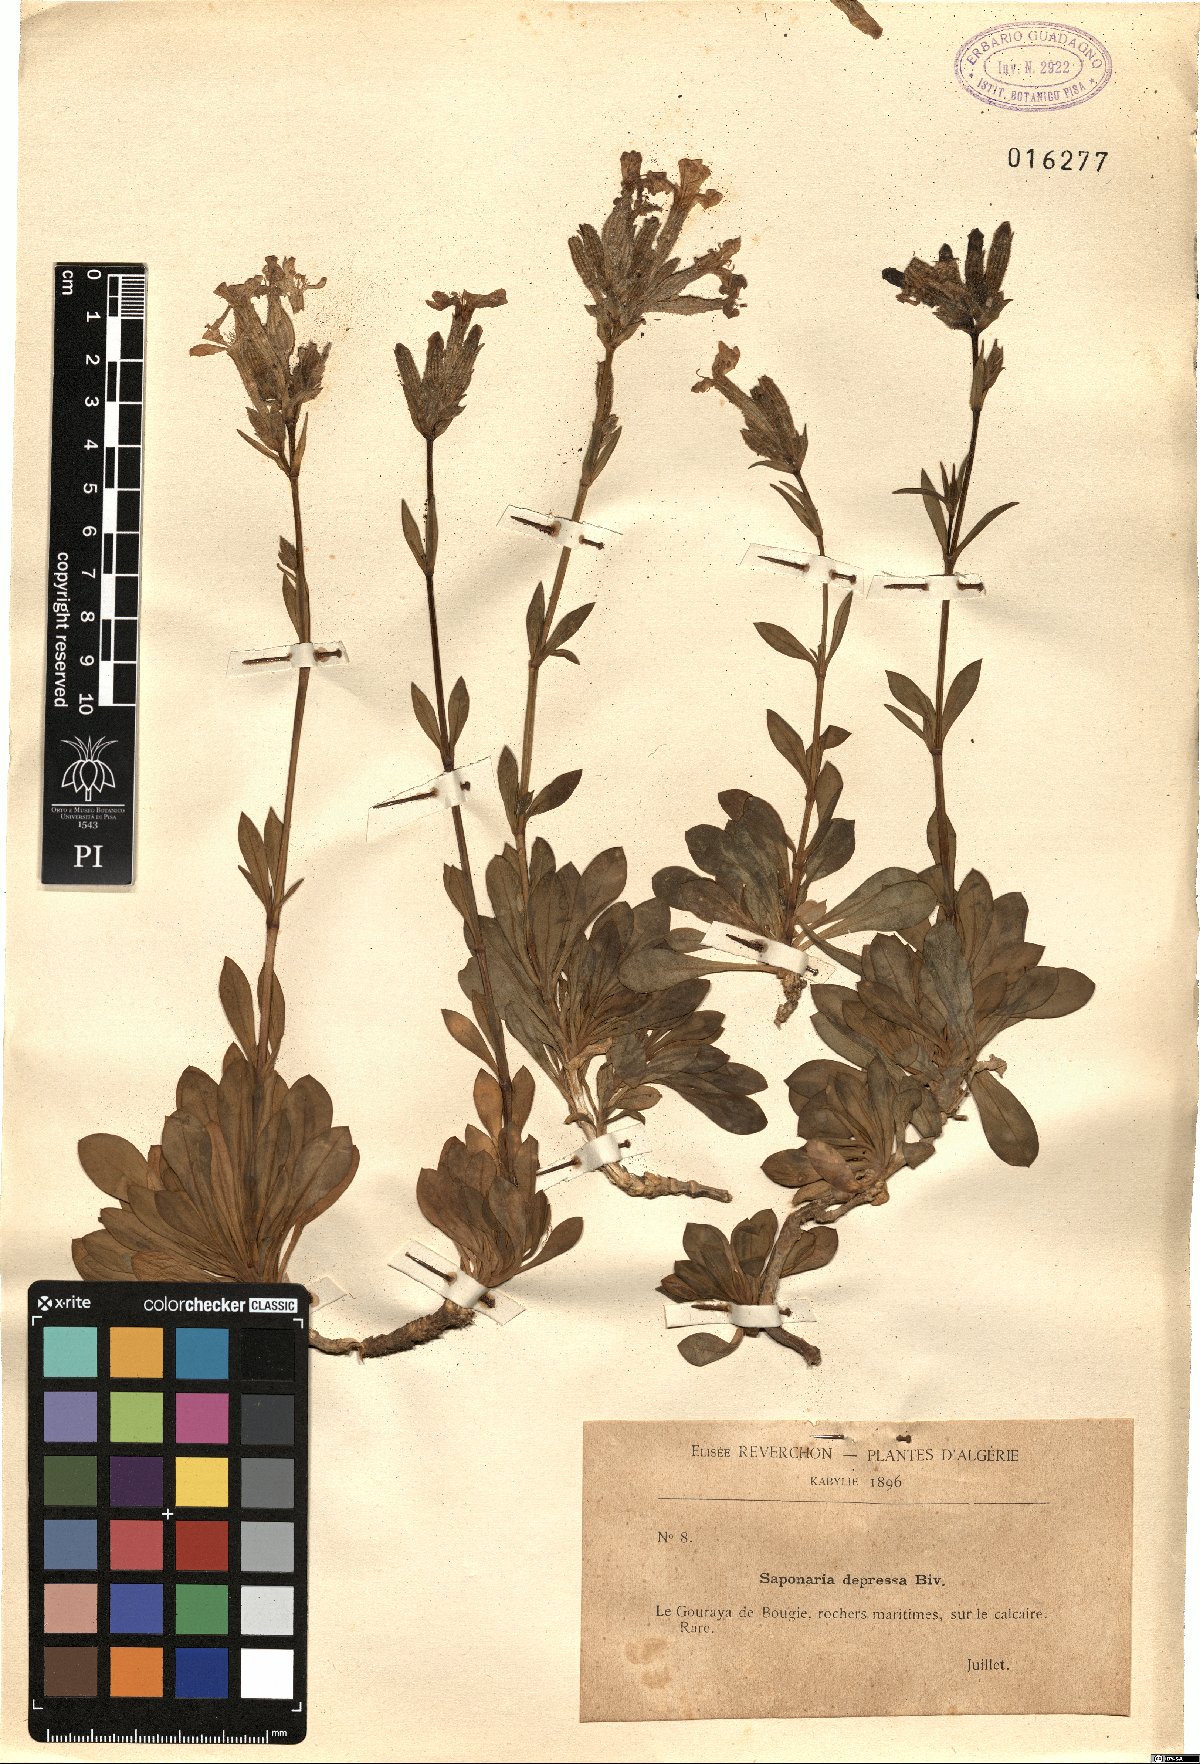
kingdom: Plantae
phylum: Tracheophyta
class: Magnoliopsida
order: Caryophyllales
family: Caryophyllaceae
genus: Saponaria
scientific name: Saponaria sicula
